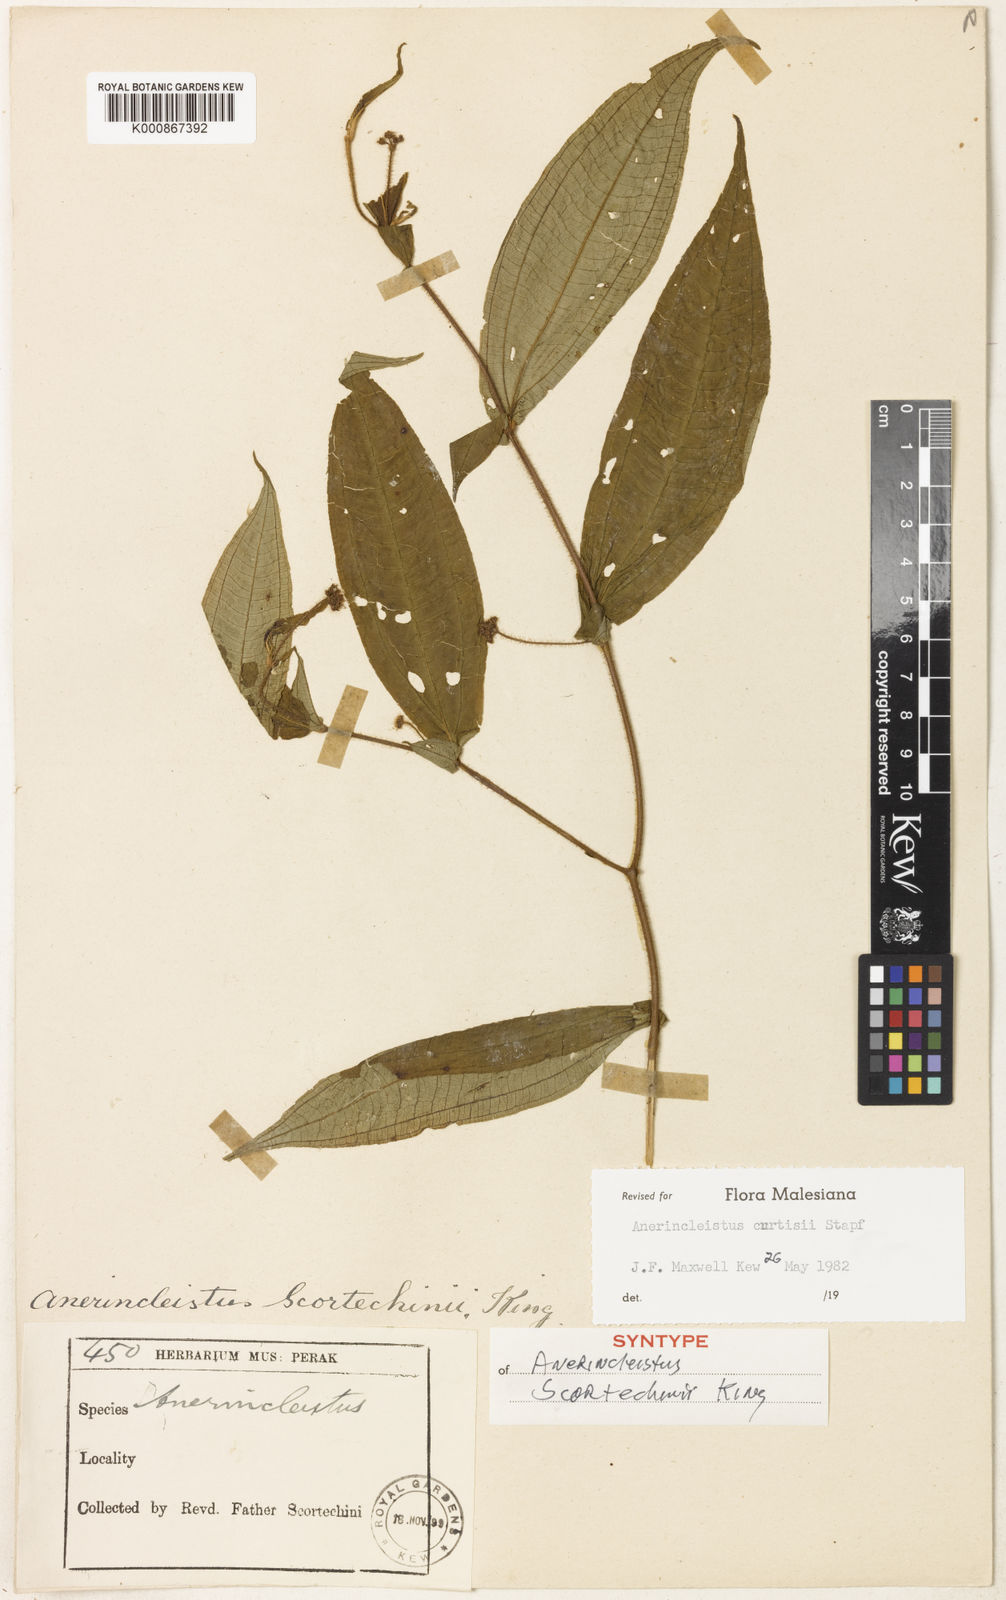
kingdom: Plantae
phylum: Tracheophyta
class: Magnoliopsida
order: Myrtales
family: Melastomataceae
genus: Anerincleistus
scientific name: Anerincleistus curtisii
